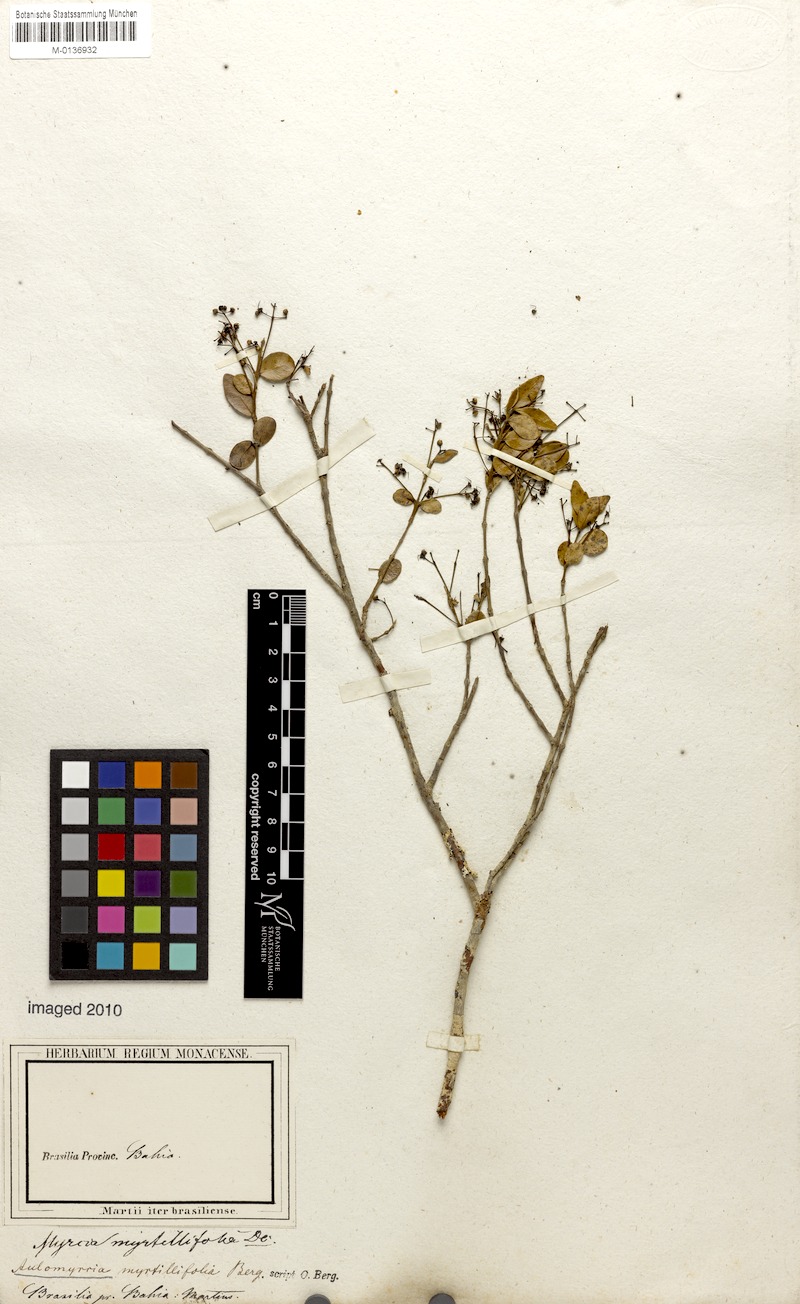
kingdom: Plantae
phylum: Tracheophyta
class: Magnoliopsida
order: Myrtales
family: Myrtaceae
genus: Myrcia
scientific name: Myrcia guianensis
